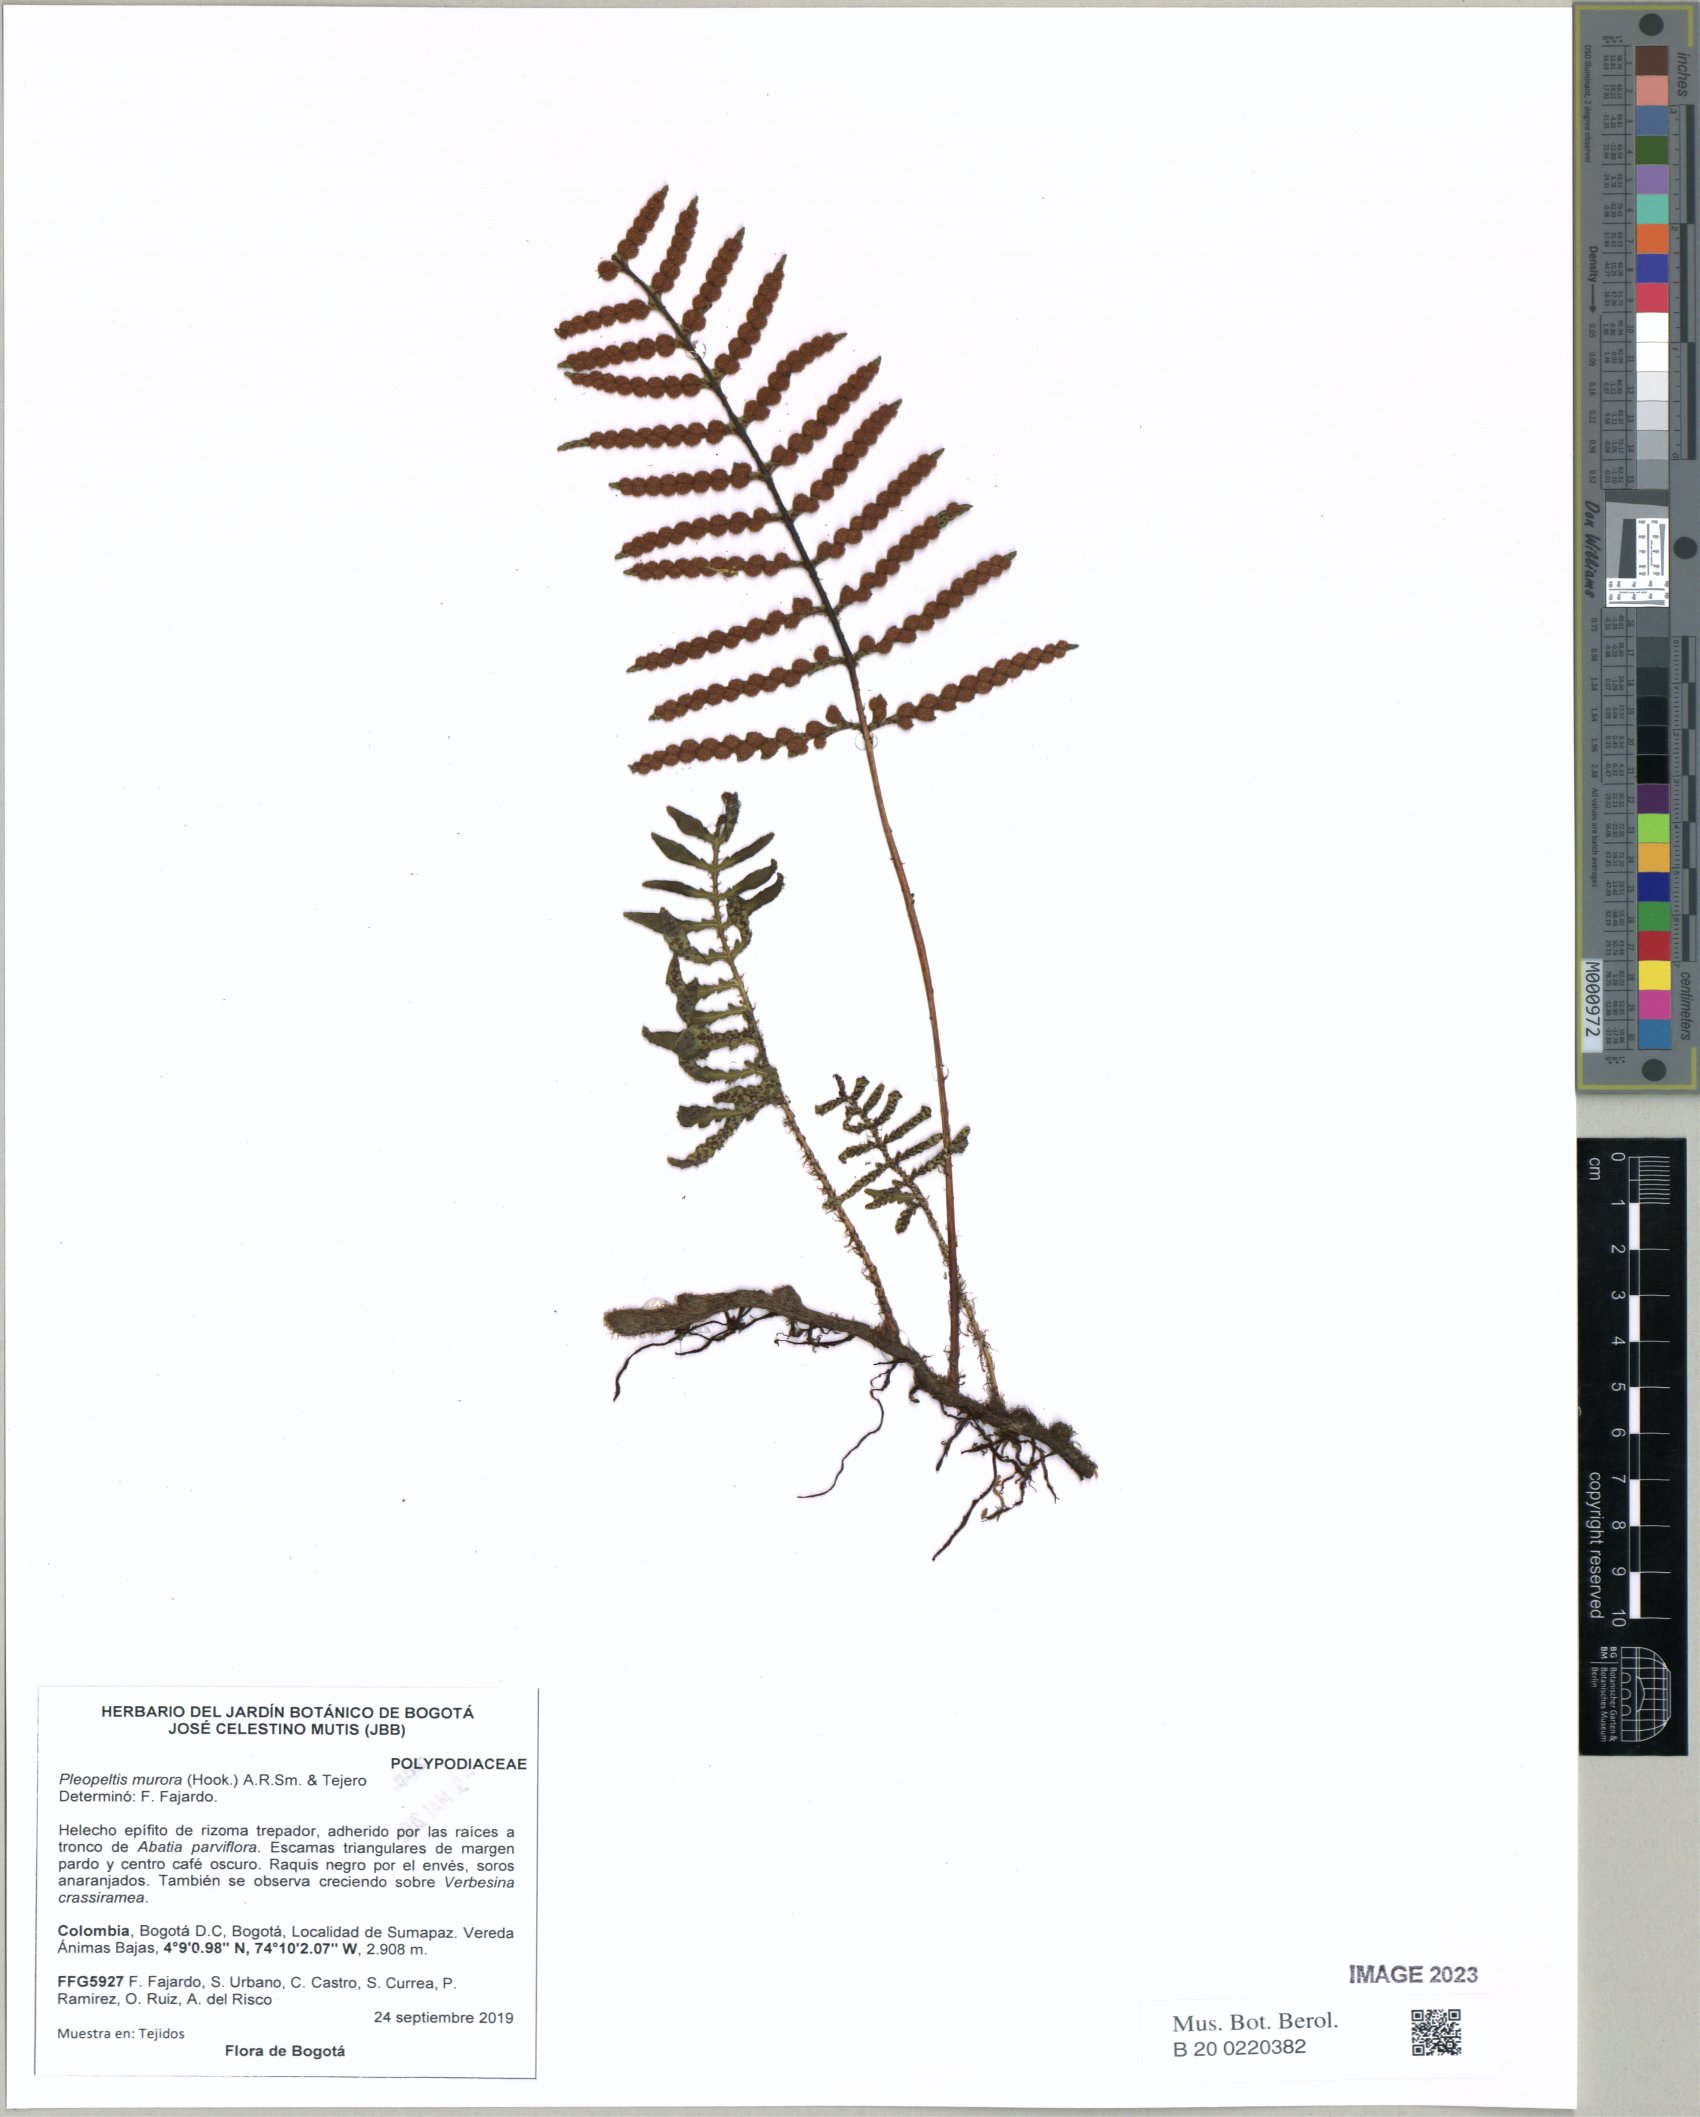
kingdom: Plantae
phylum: Tracheophyta
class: Polypodiopsida
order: Polypodiales
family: Polypodiaceae
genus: Pleopeltis
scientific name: Pleopeltis murora
